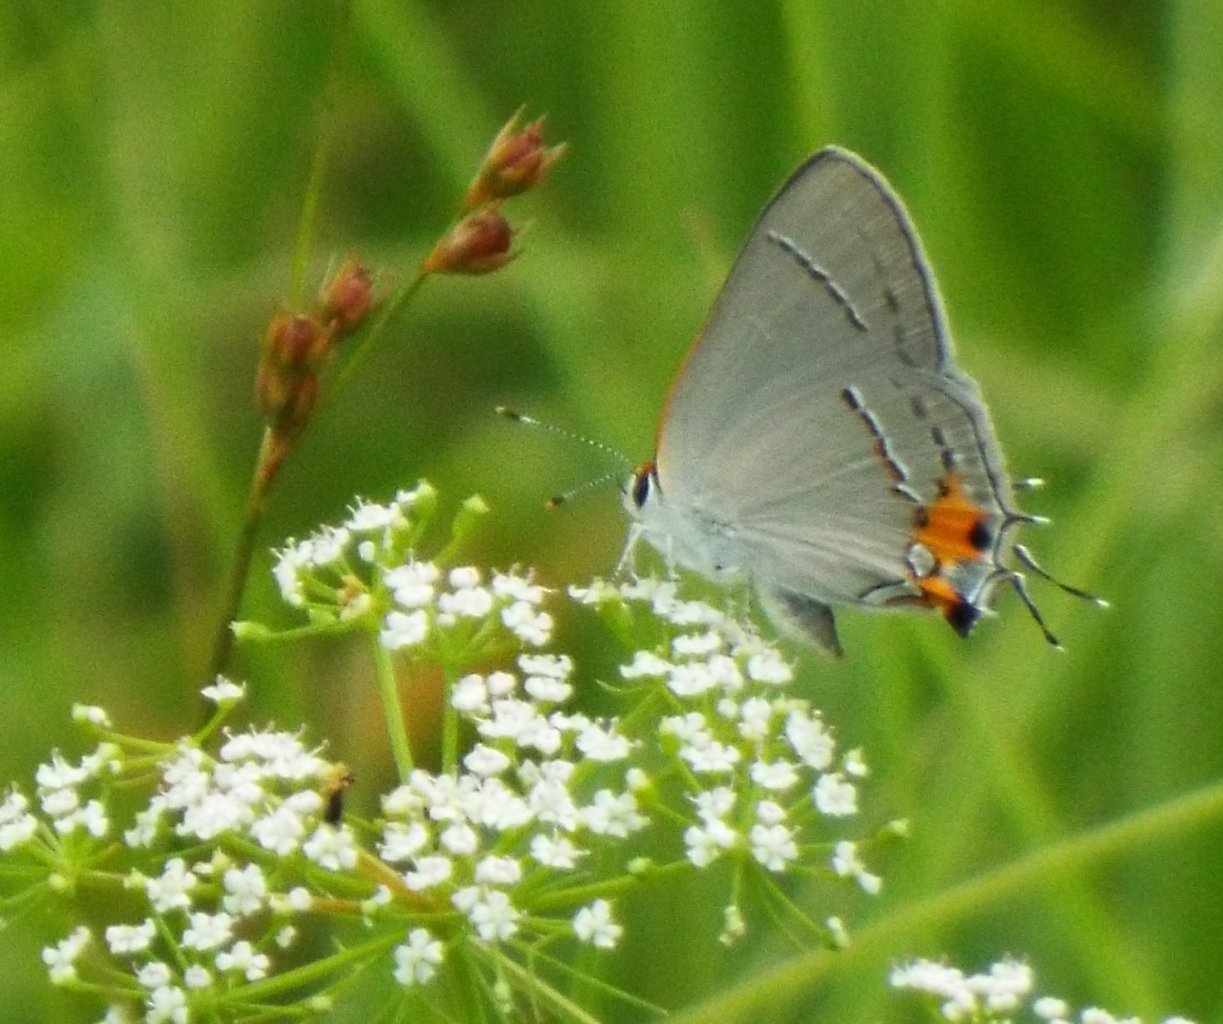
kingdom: Animalia
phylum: Arthropoda
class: Insecta
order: Lepidoptera
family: Lycaenidae
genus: Strymon
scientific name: Strymon melinus
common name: Gray Hairstreak
